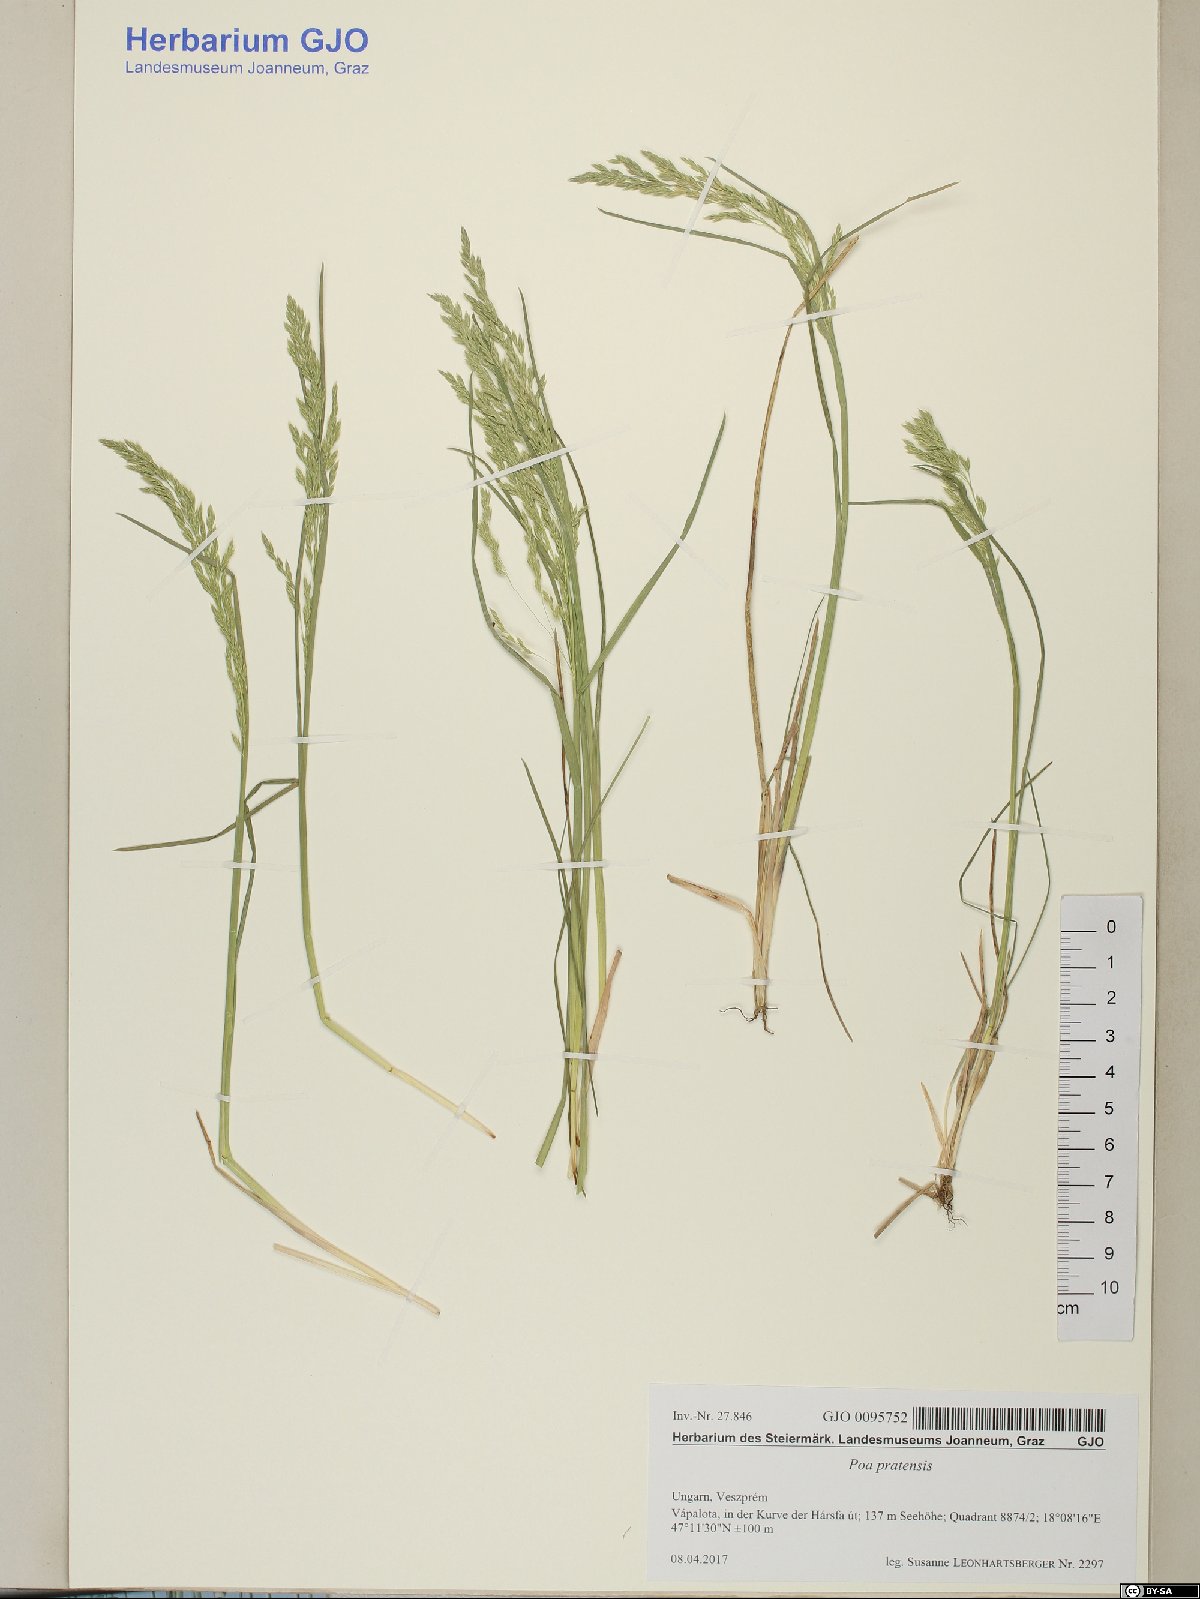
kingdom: Plantae
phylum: Tracheophyta
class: Liliopsida
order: Poales
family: Poaceae
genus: Poa
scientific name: Poa pratensis
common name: Kentucky bluegrass
